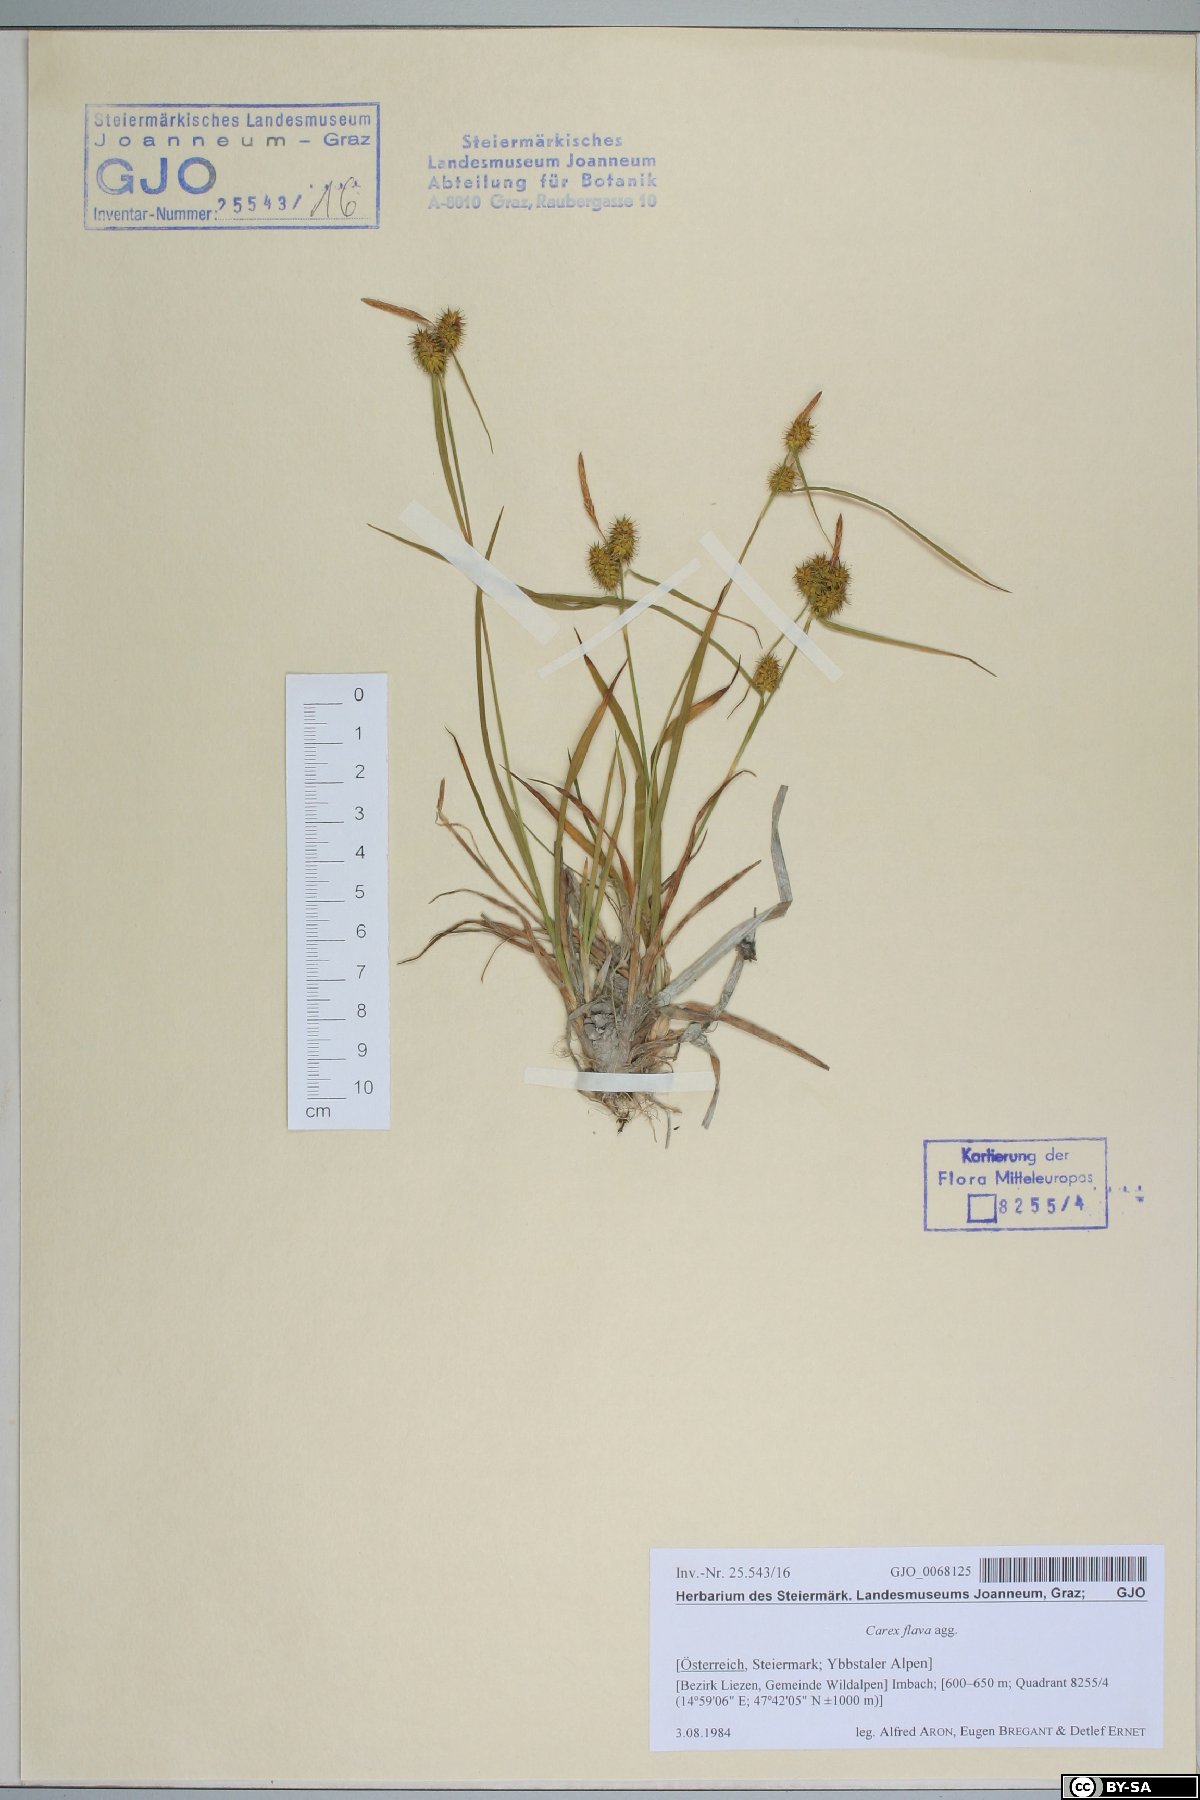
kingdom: Plantae
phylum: Tracheophyta
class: Liliopsida
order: Poales
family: Cyperaceae
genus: Carex
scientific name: Carex flava
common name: Large yellow-sedge
